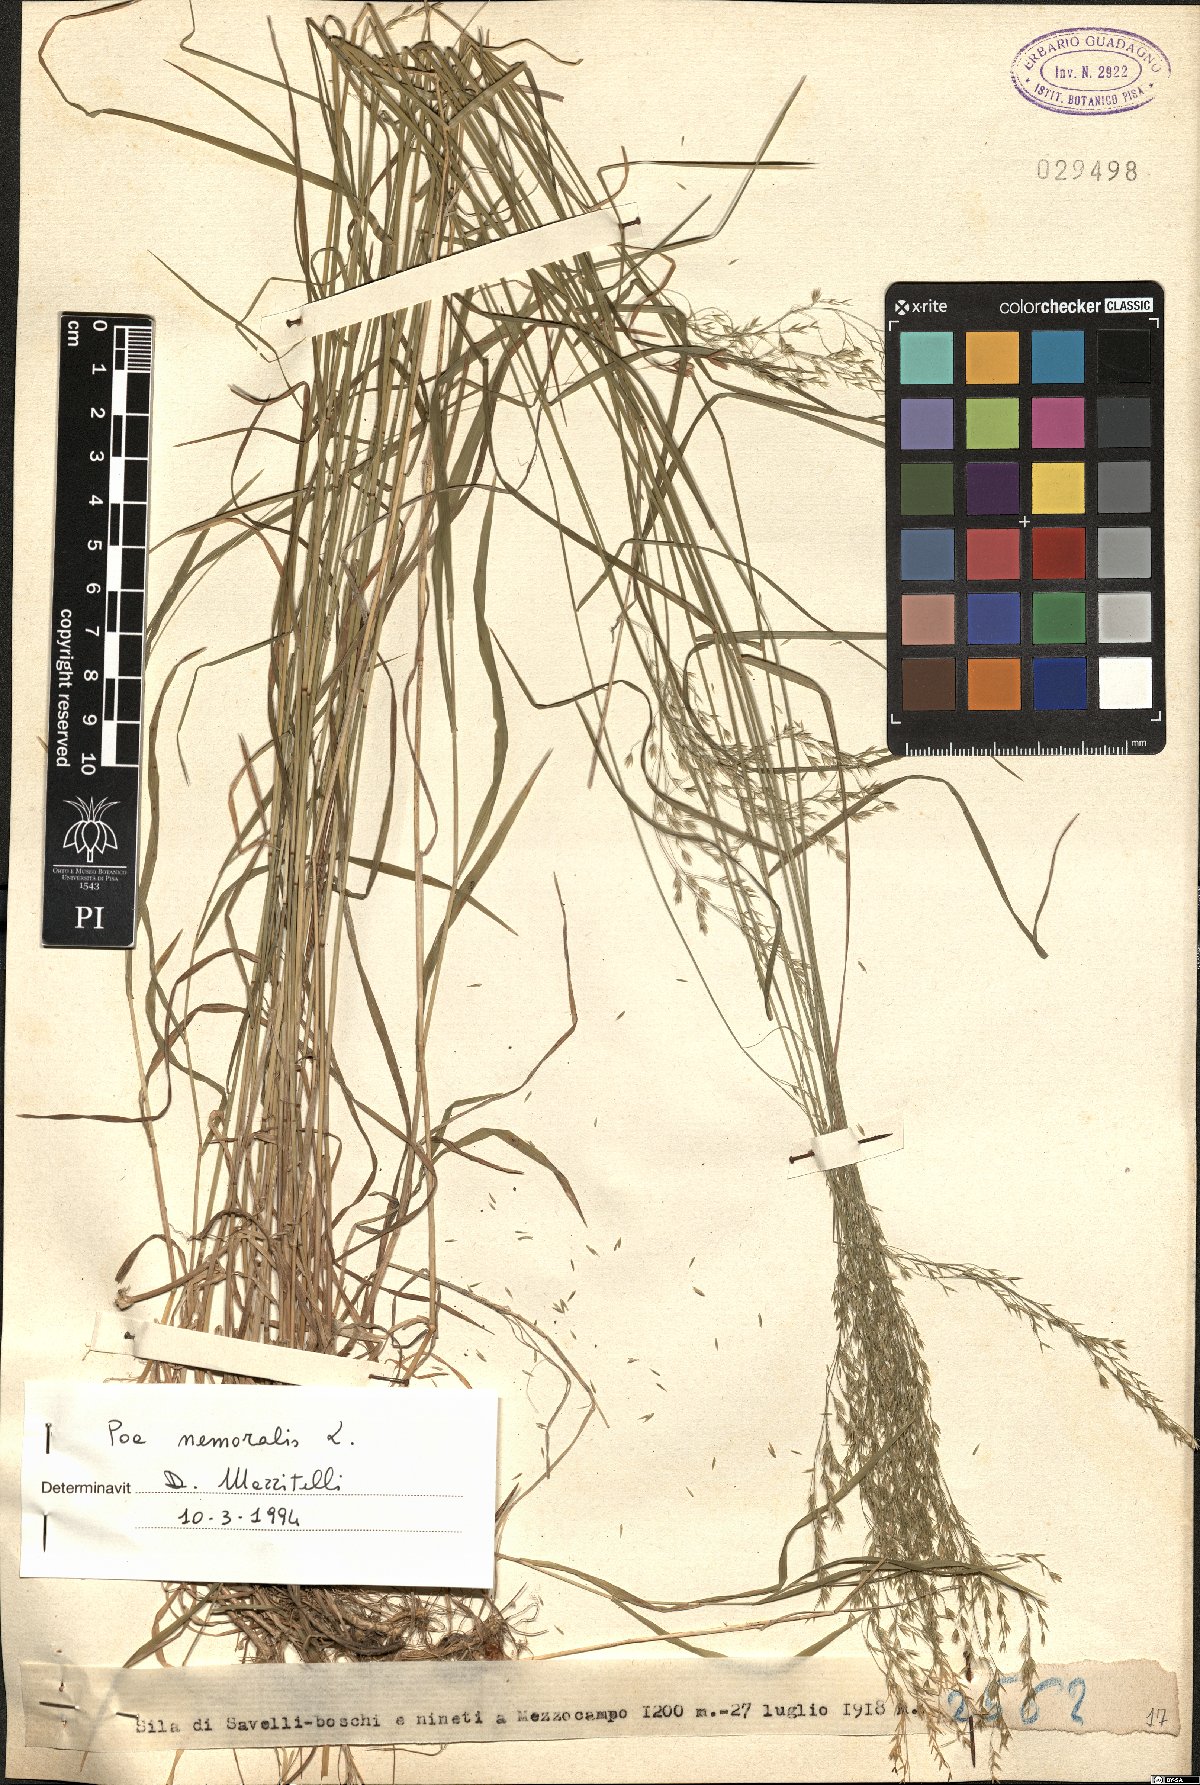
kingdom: Plantae
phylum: Tracheophyta
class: Liliopsida
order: Poales
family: Poaceae
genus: Poa
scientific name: Poa nemoralis
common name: Wood bluegrass
